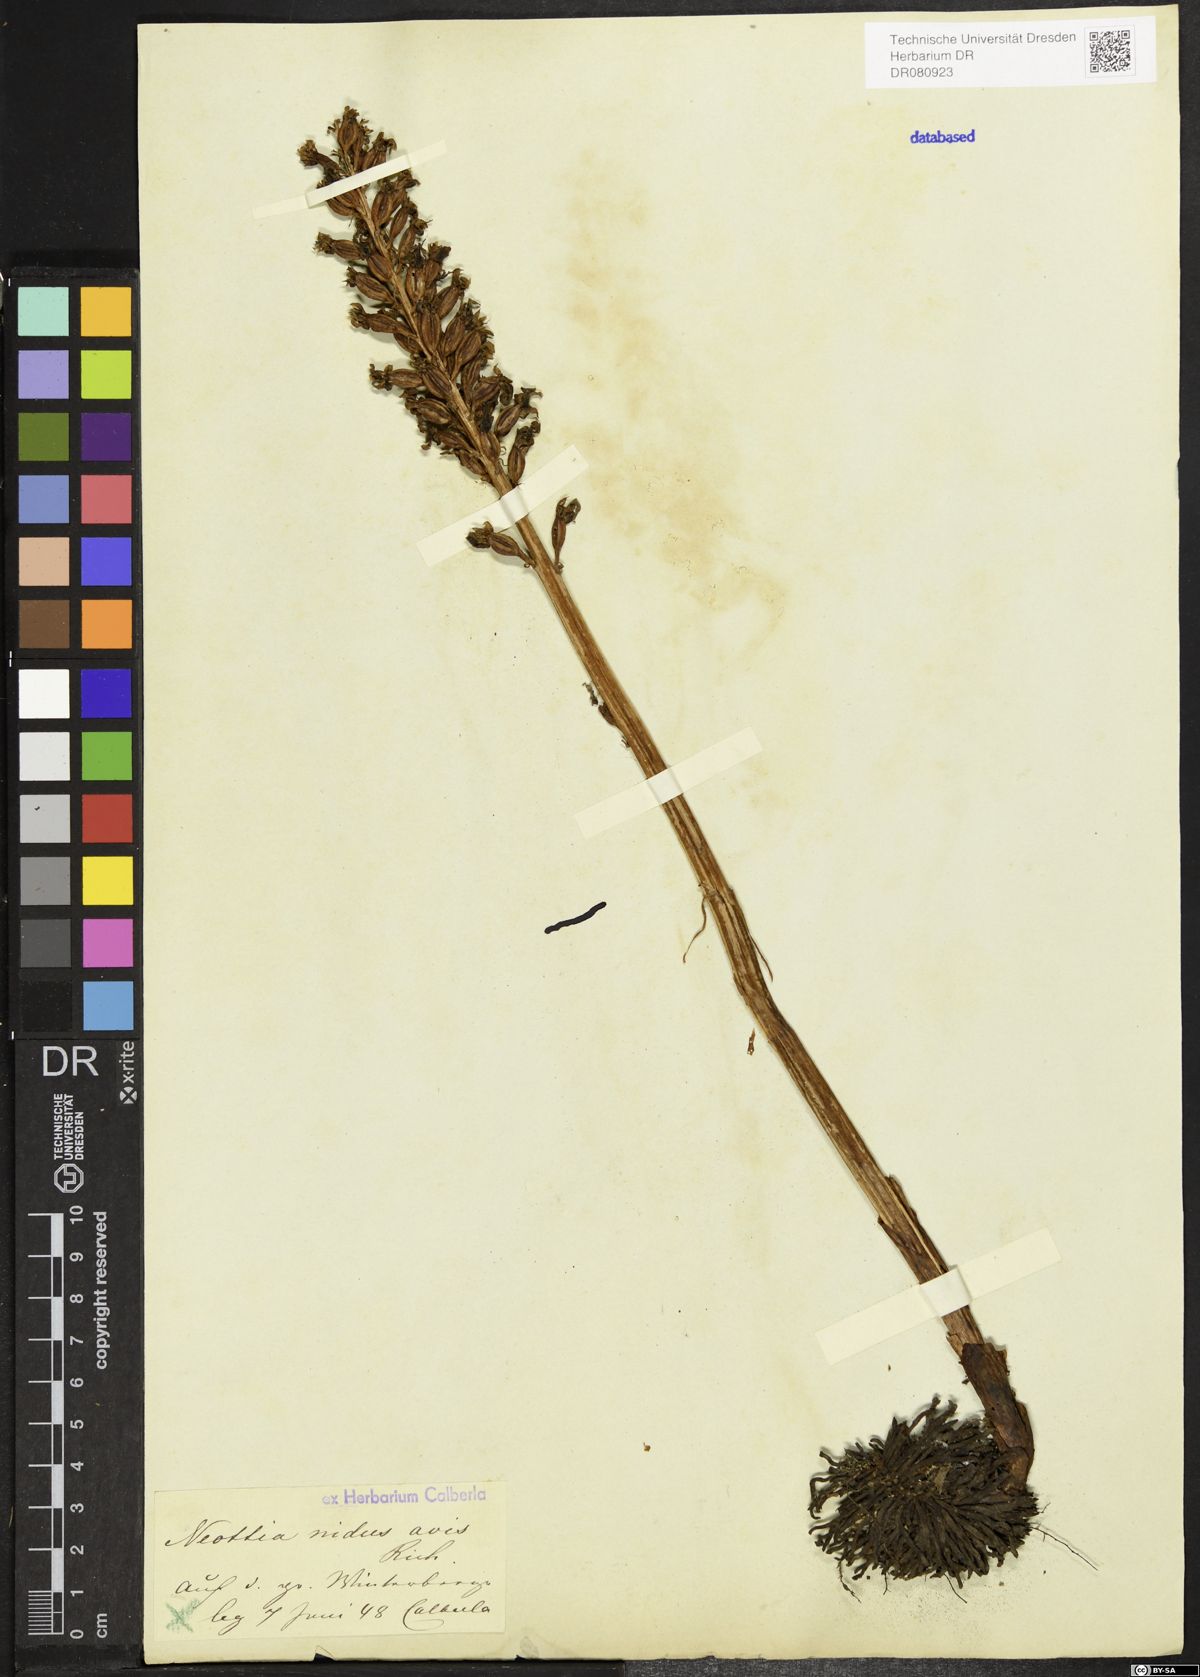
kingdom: Plantae
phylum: Tracheophyta
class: Liliopsida
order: Asparagales
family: Orchidaceae
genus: Neottia
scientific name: Neottia nidus-avis
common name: Bird's-nest orchid
